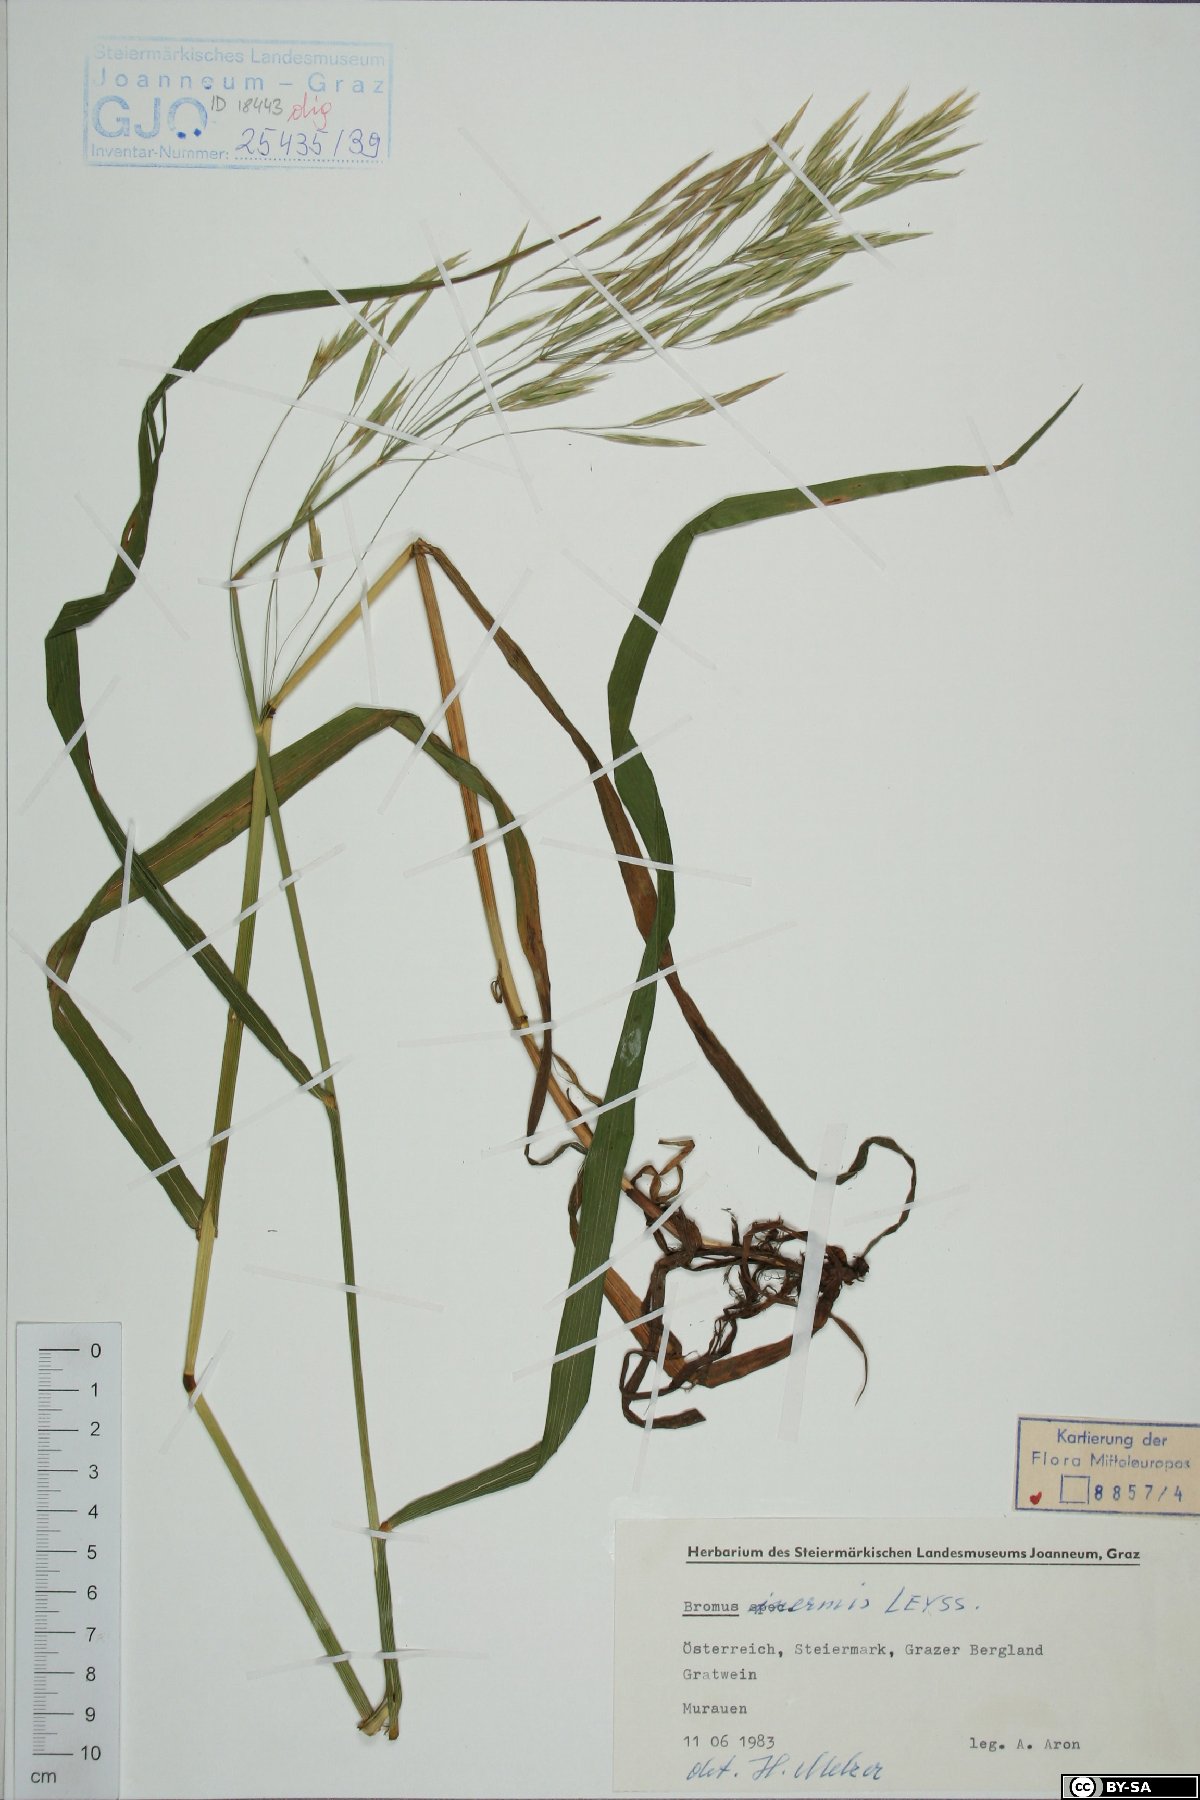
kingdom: Plantae
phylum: Tracheophyta
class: Liliopsida
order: Poales
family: Poaceae
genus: Bromus
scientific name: Bromus inermis
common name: Smooth brome
